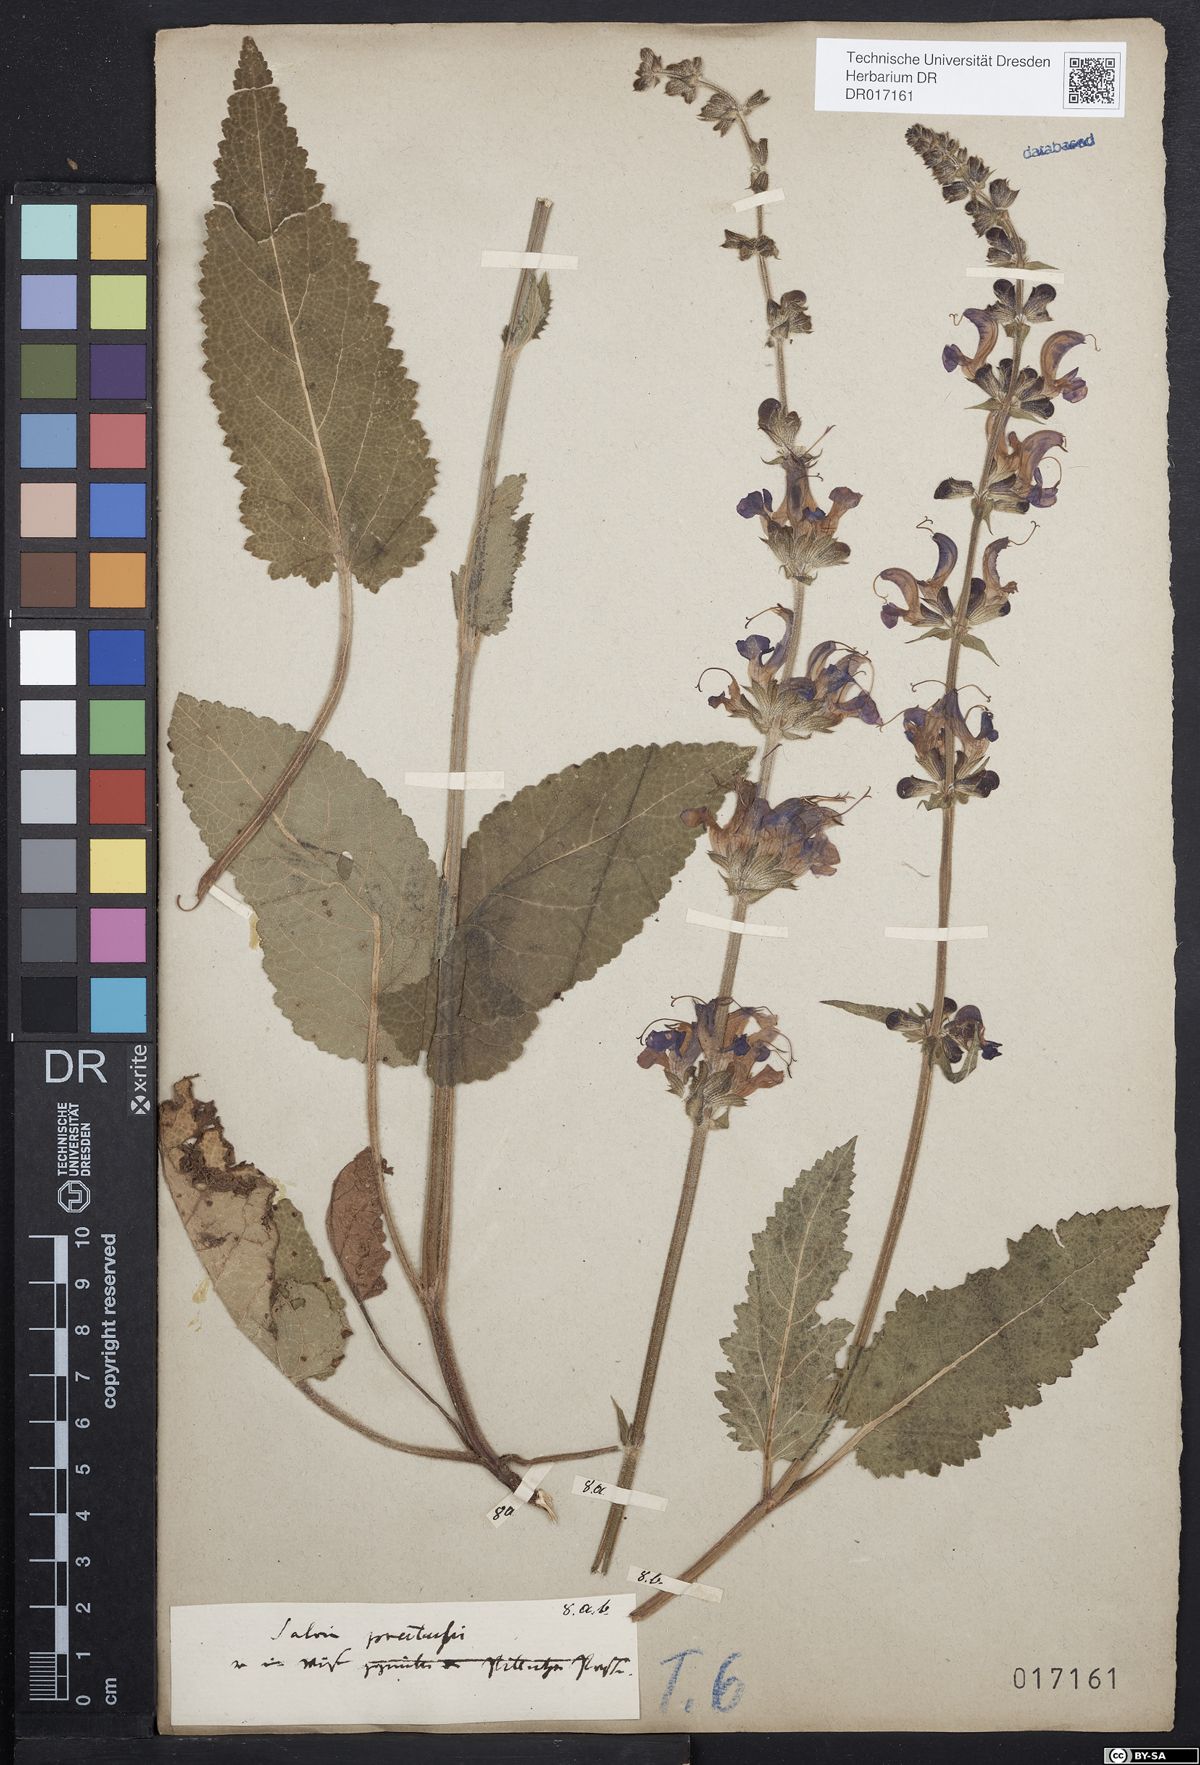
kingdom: Plantae
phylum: Tracheophyta
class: Magnoliopsida
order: Lamiales
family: Lamiaceae
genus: Salvia
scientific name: Salvia pratensis
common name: Meadow sage
